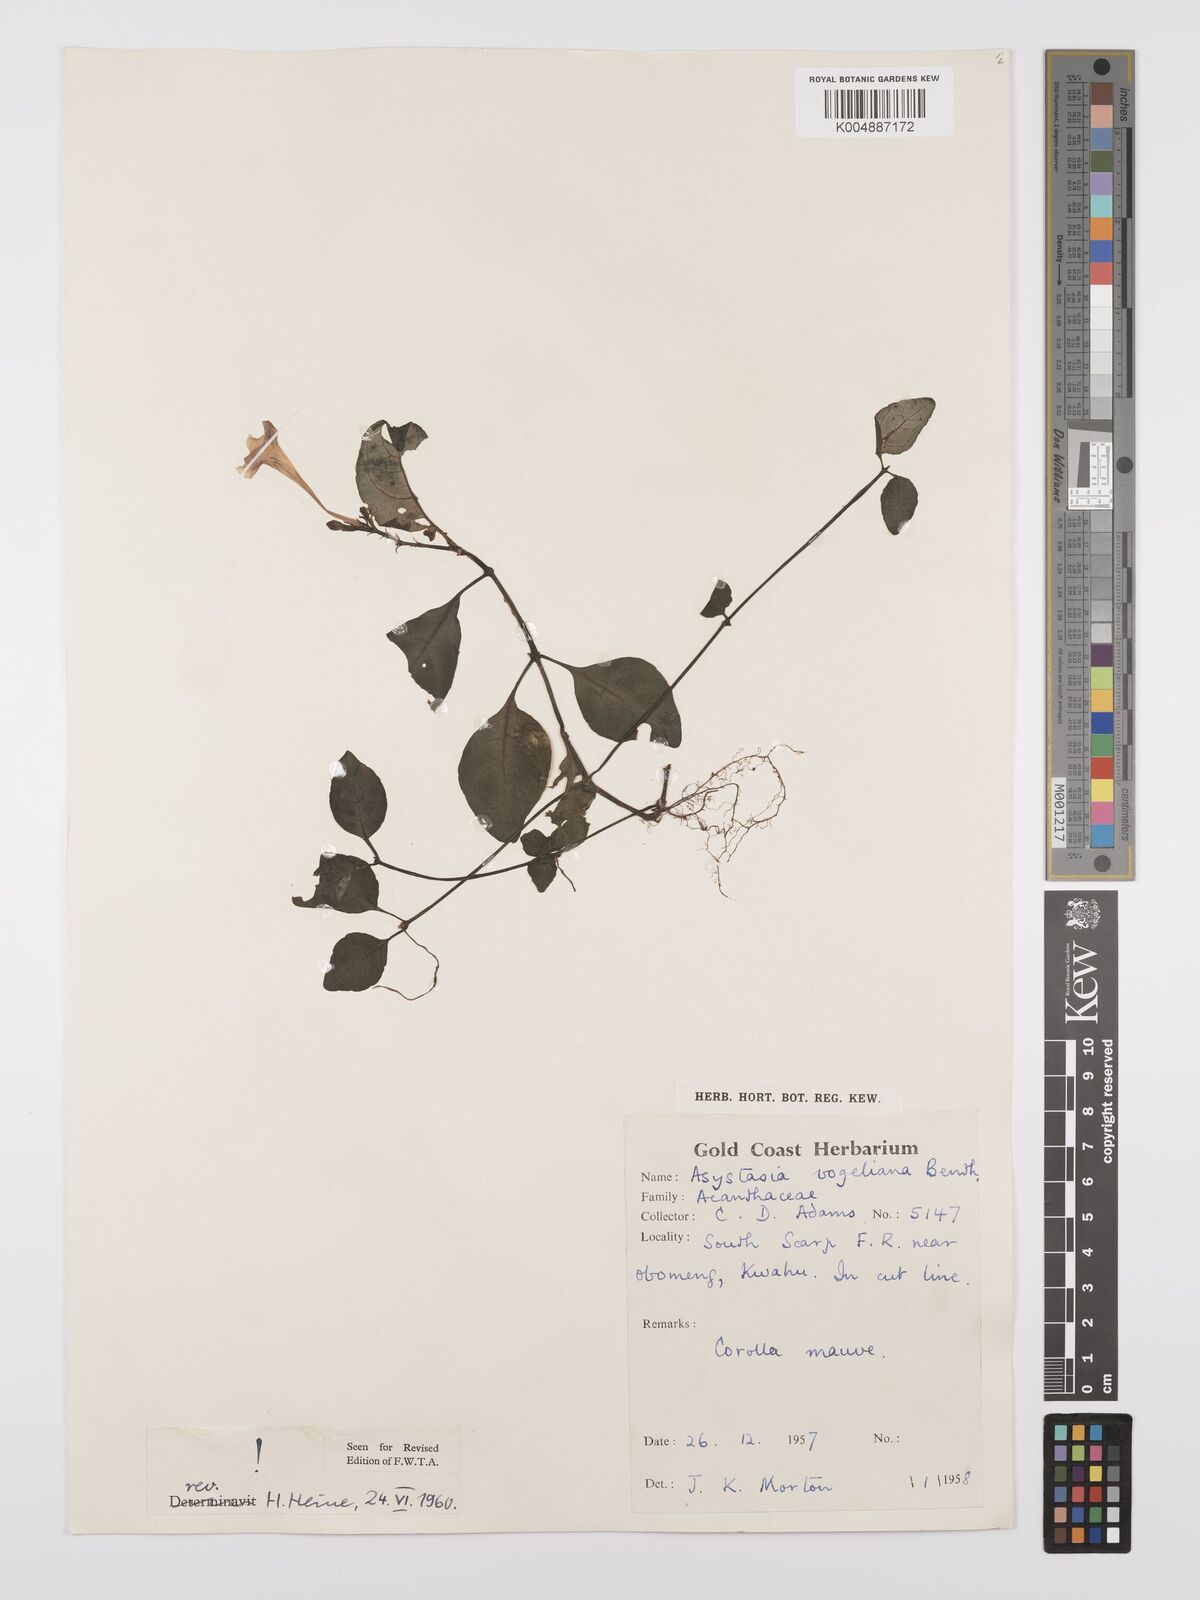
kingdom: Plantae
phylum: Tracheophyta
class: Magnoliopsida
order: Lamiales
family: Acanthaceae
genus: Asystasia
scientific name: Asystasia vogeliana
